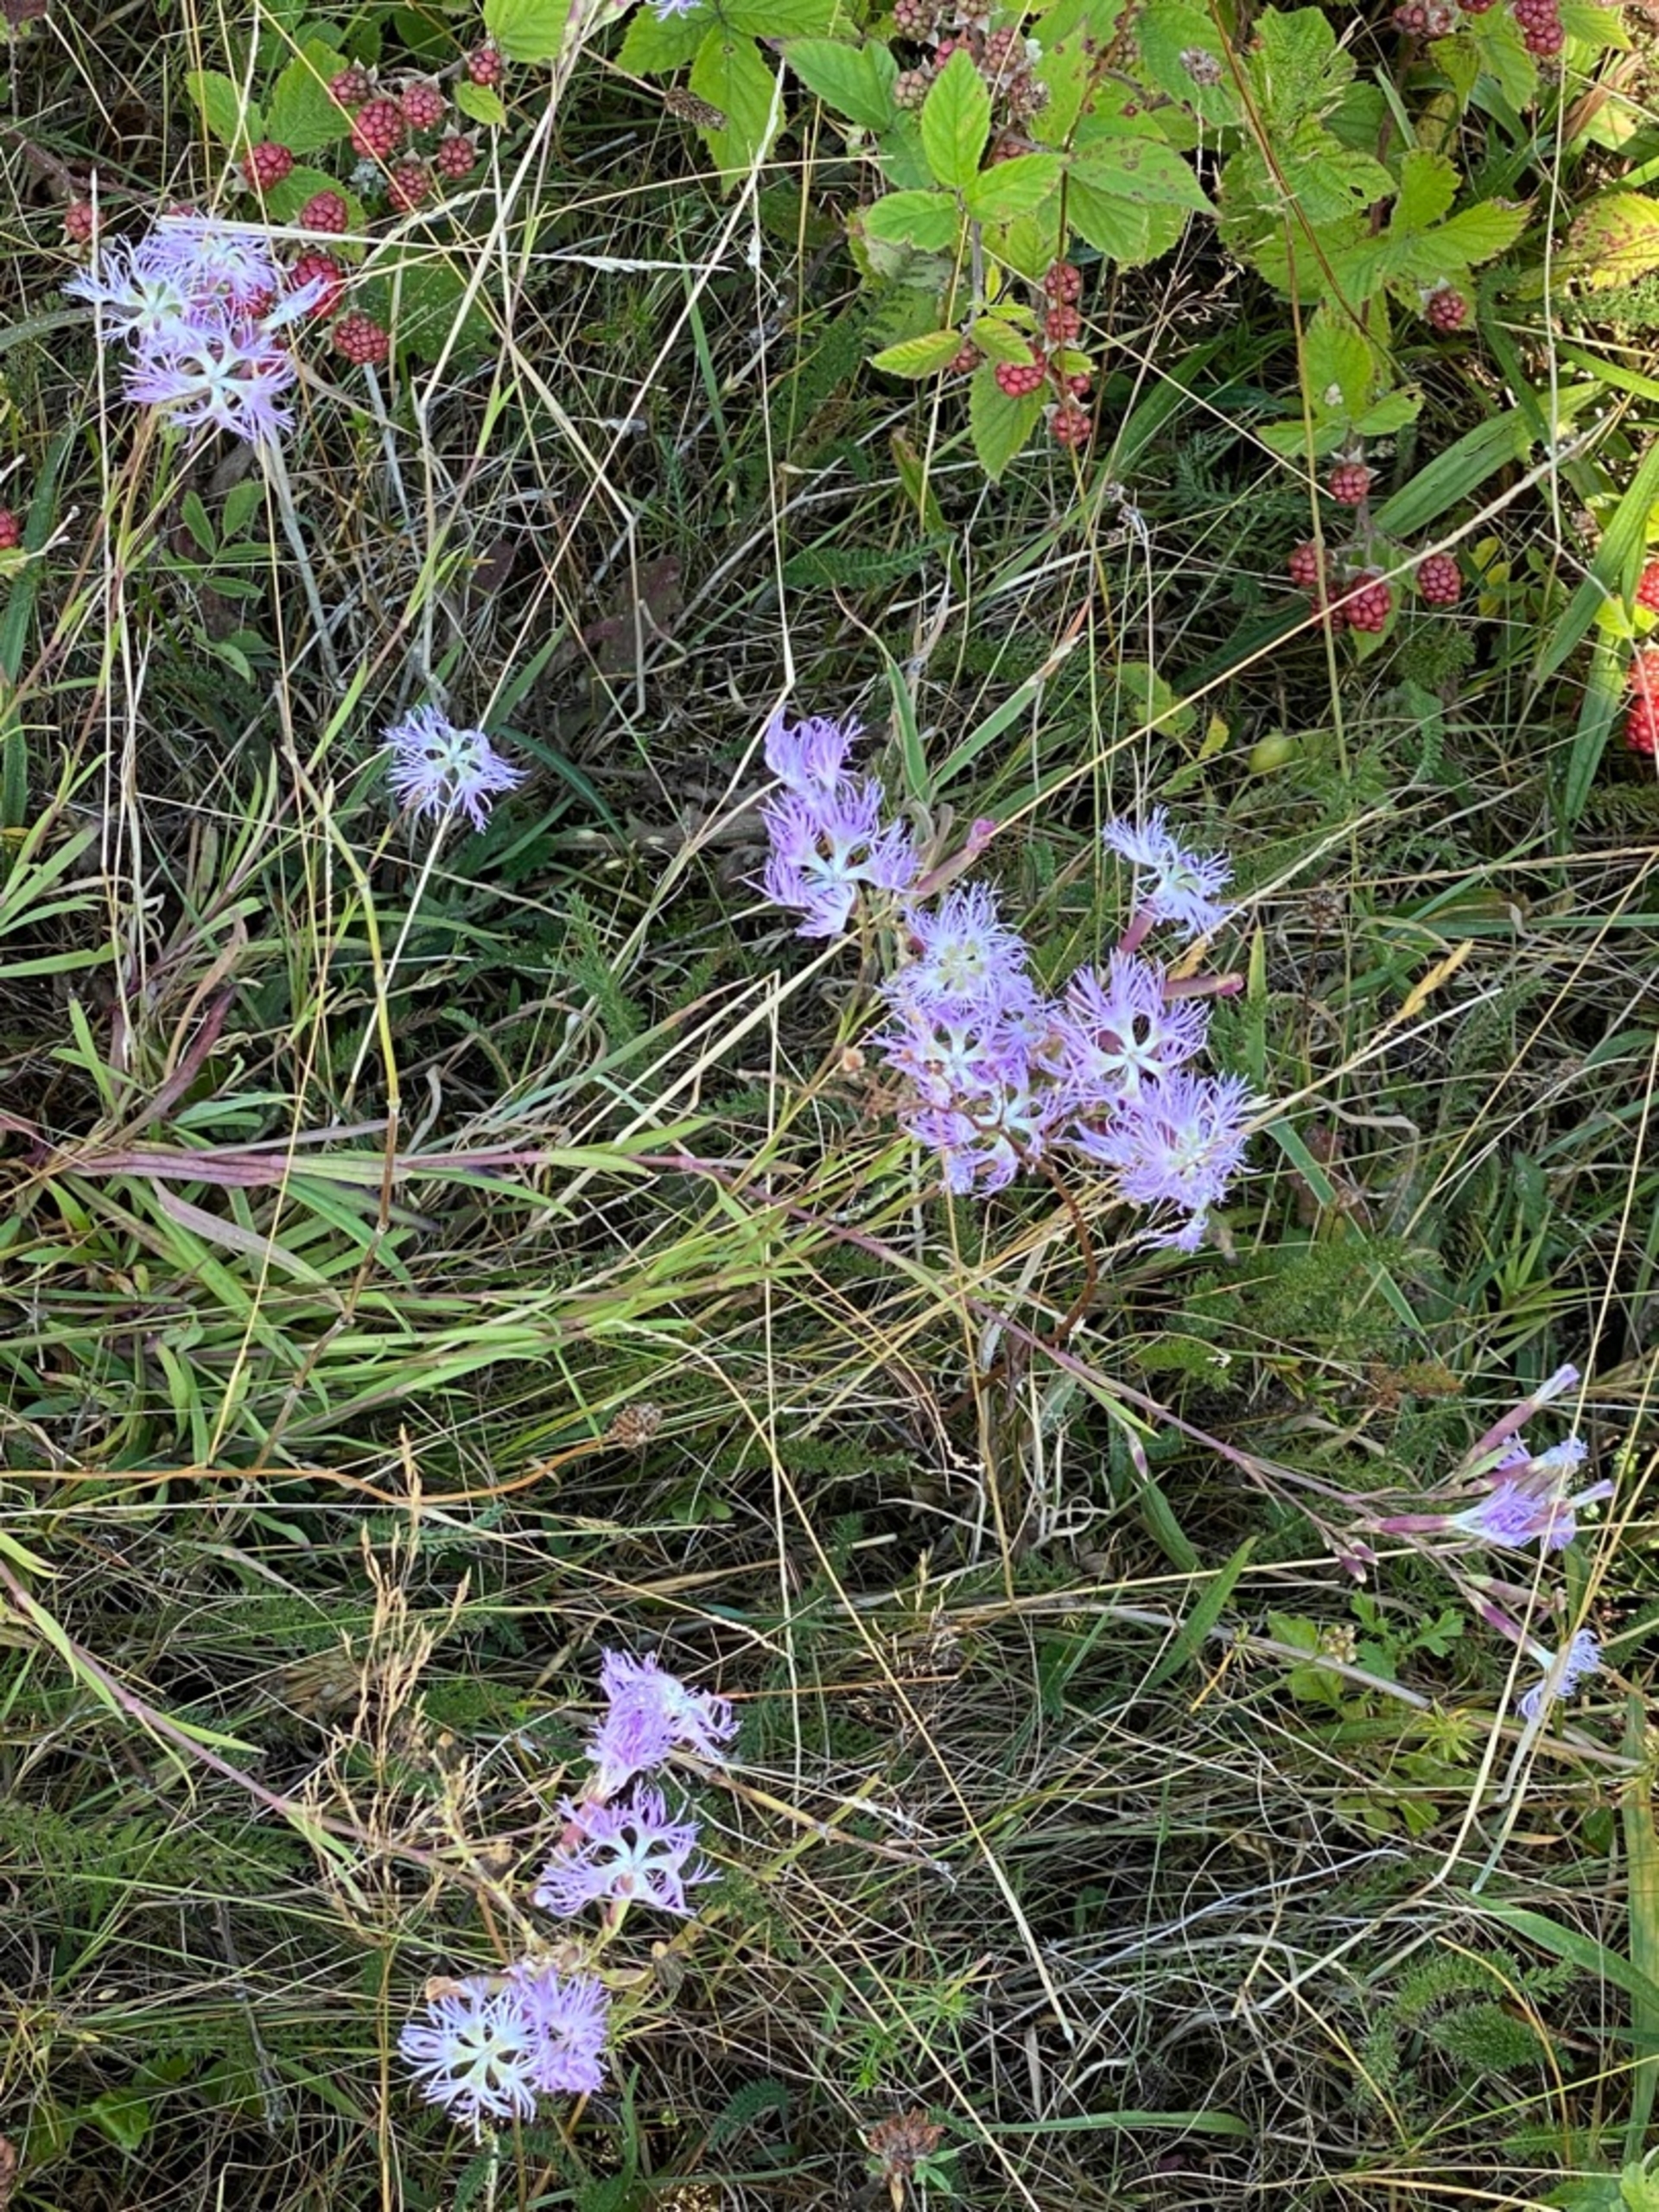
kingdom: Plantae
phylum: Tracheophyta
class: Magnoliopsida
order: Caryophyllales
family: Caryophyllaceae
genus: Dianthus
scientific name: Dianthus superbus
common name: Strand-nellike
